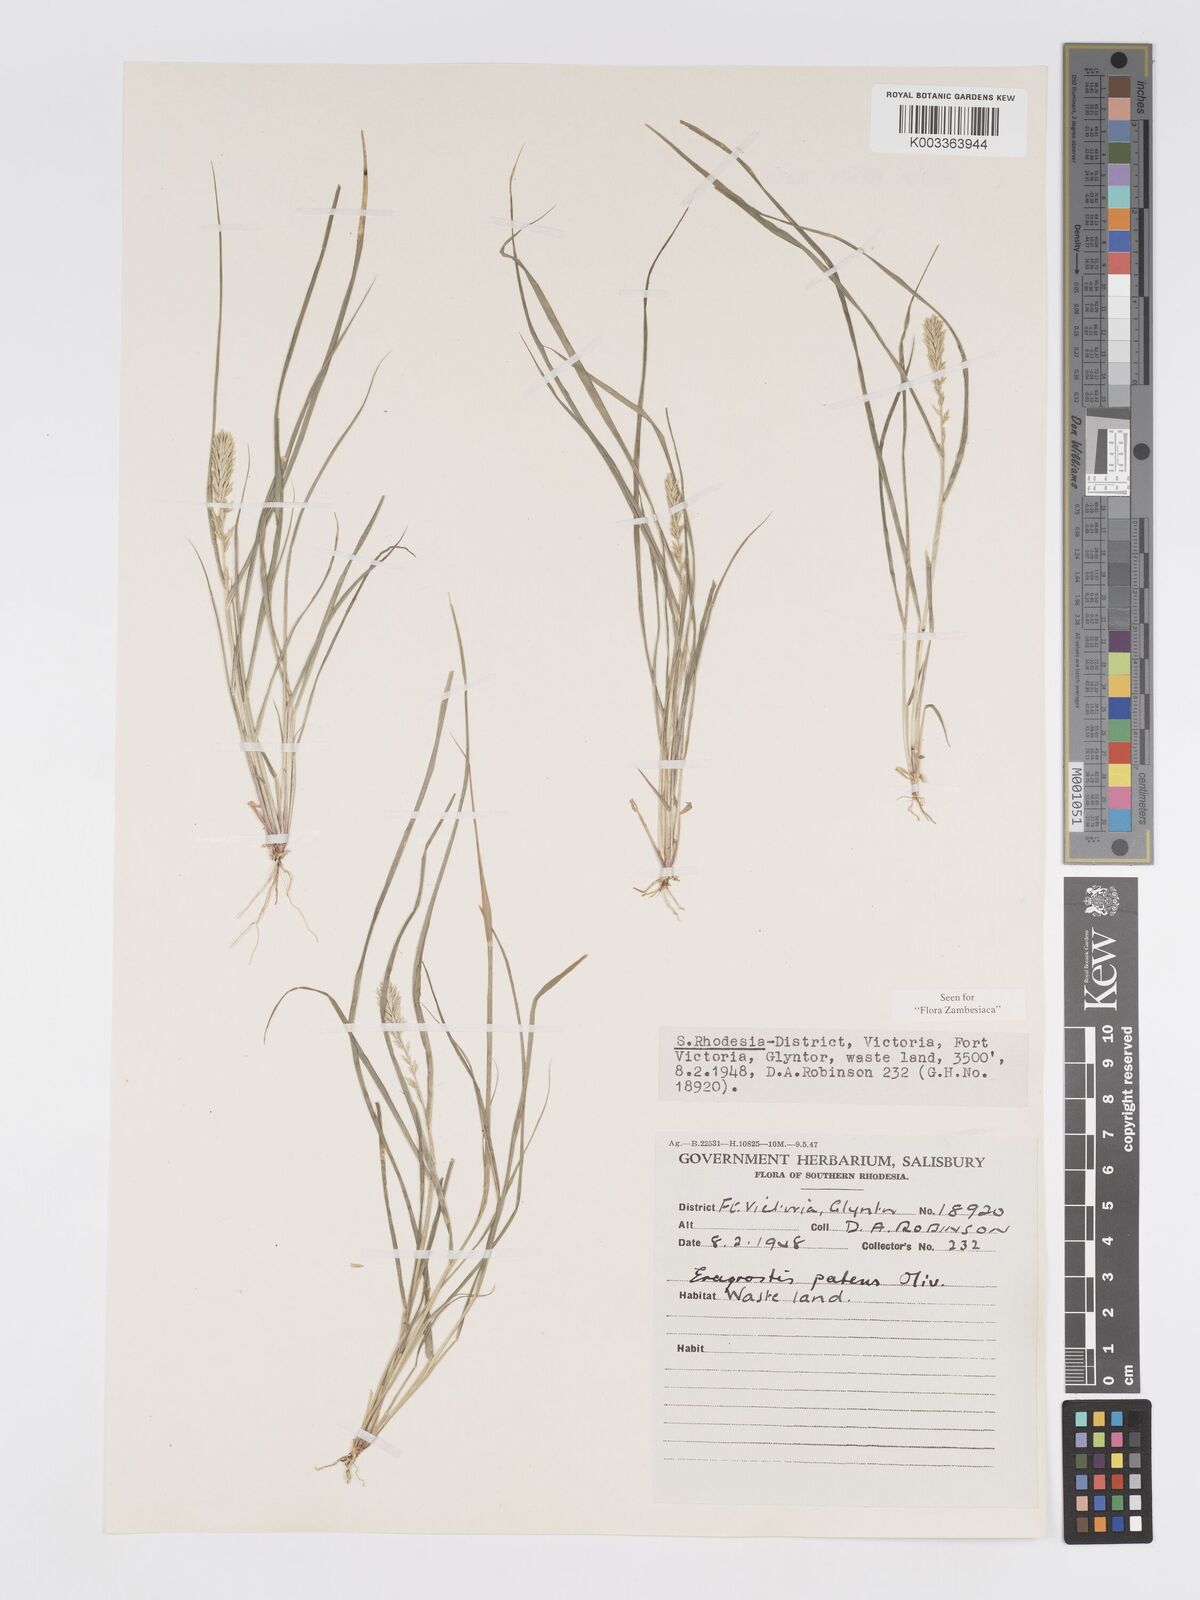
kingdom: Plantae
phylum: Tracheophyta
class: Liliopsida
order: Poales
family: Poaceae
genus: Eragrostis
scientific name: Eragrostis patens
